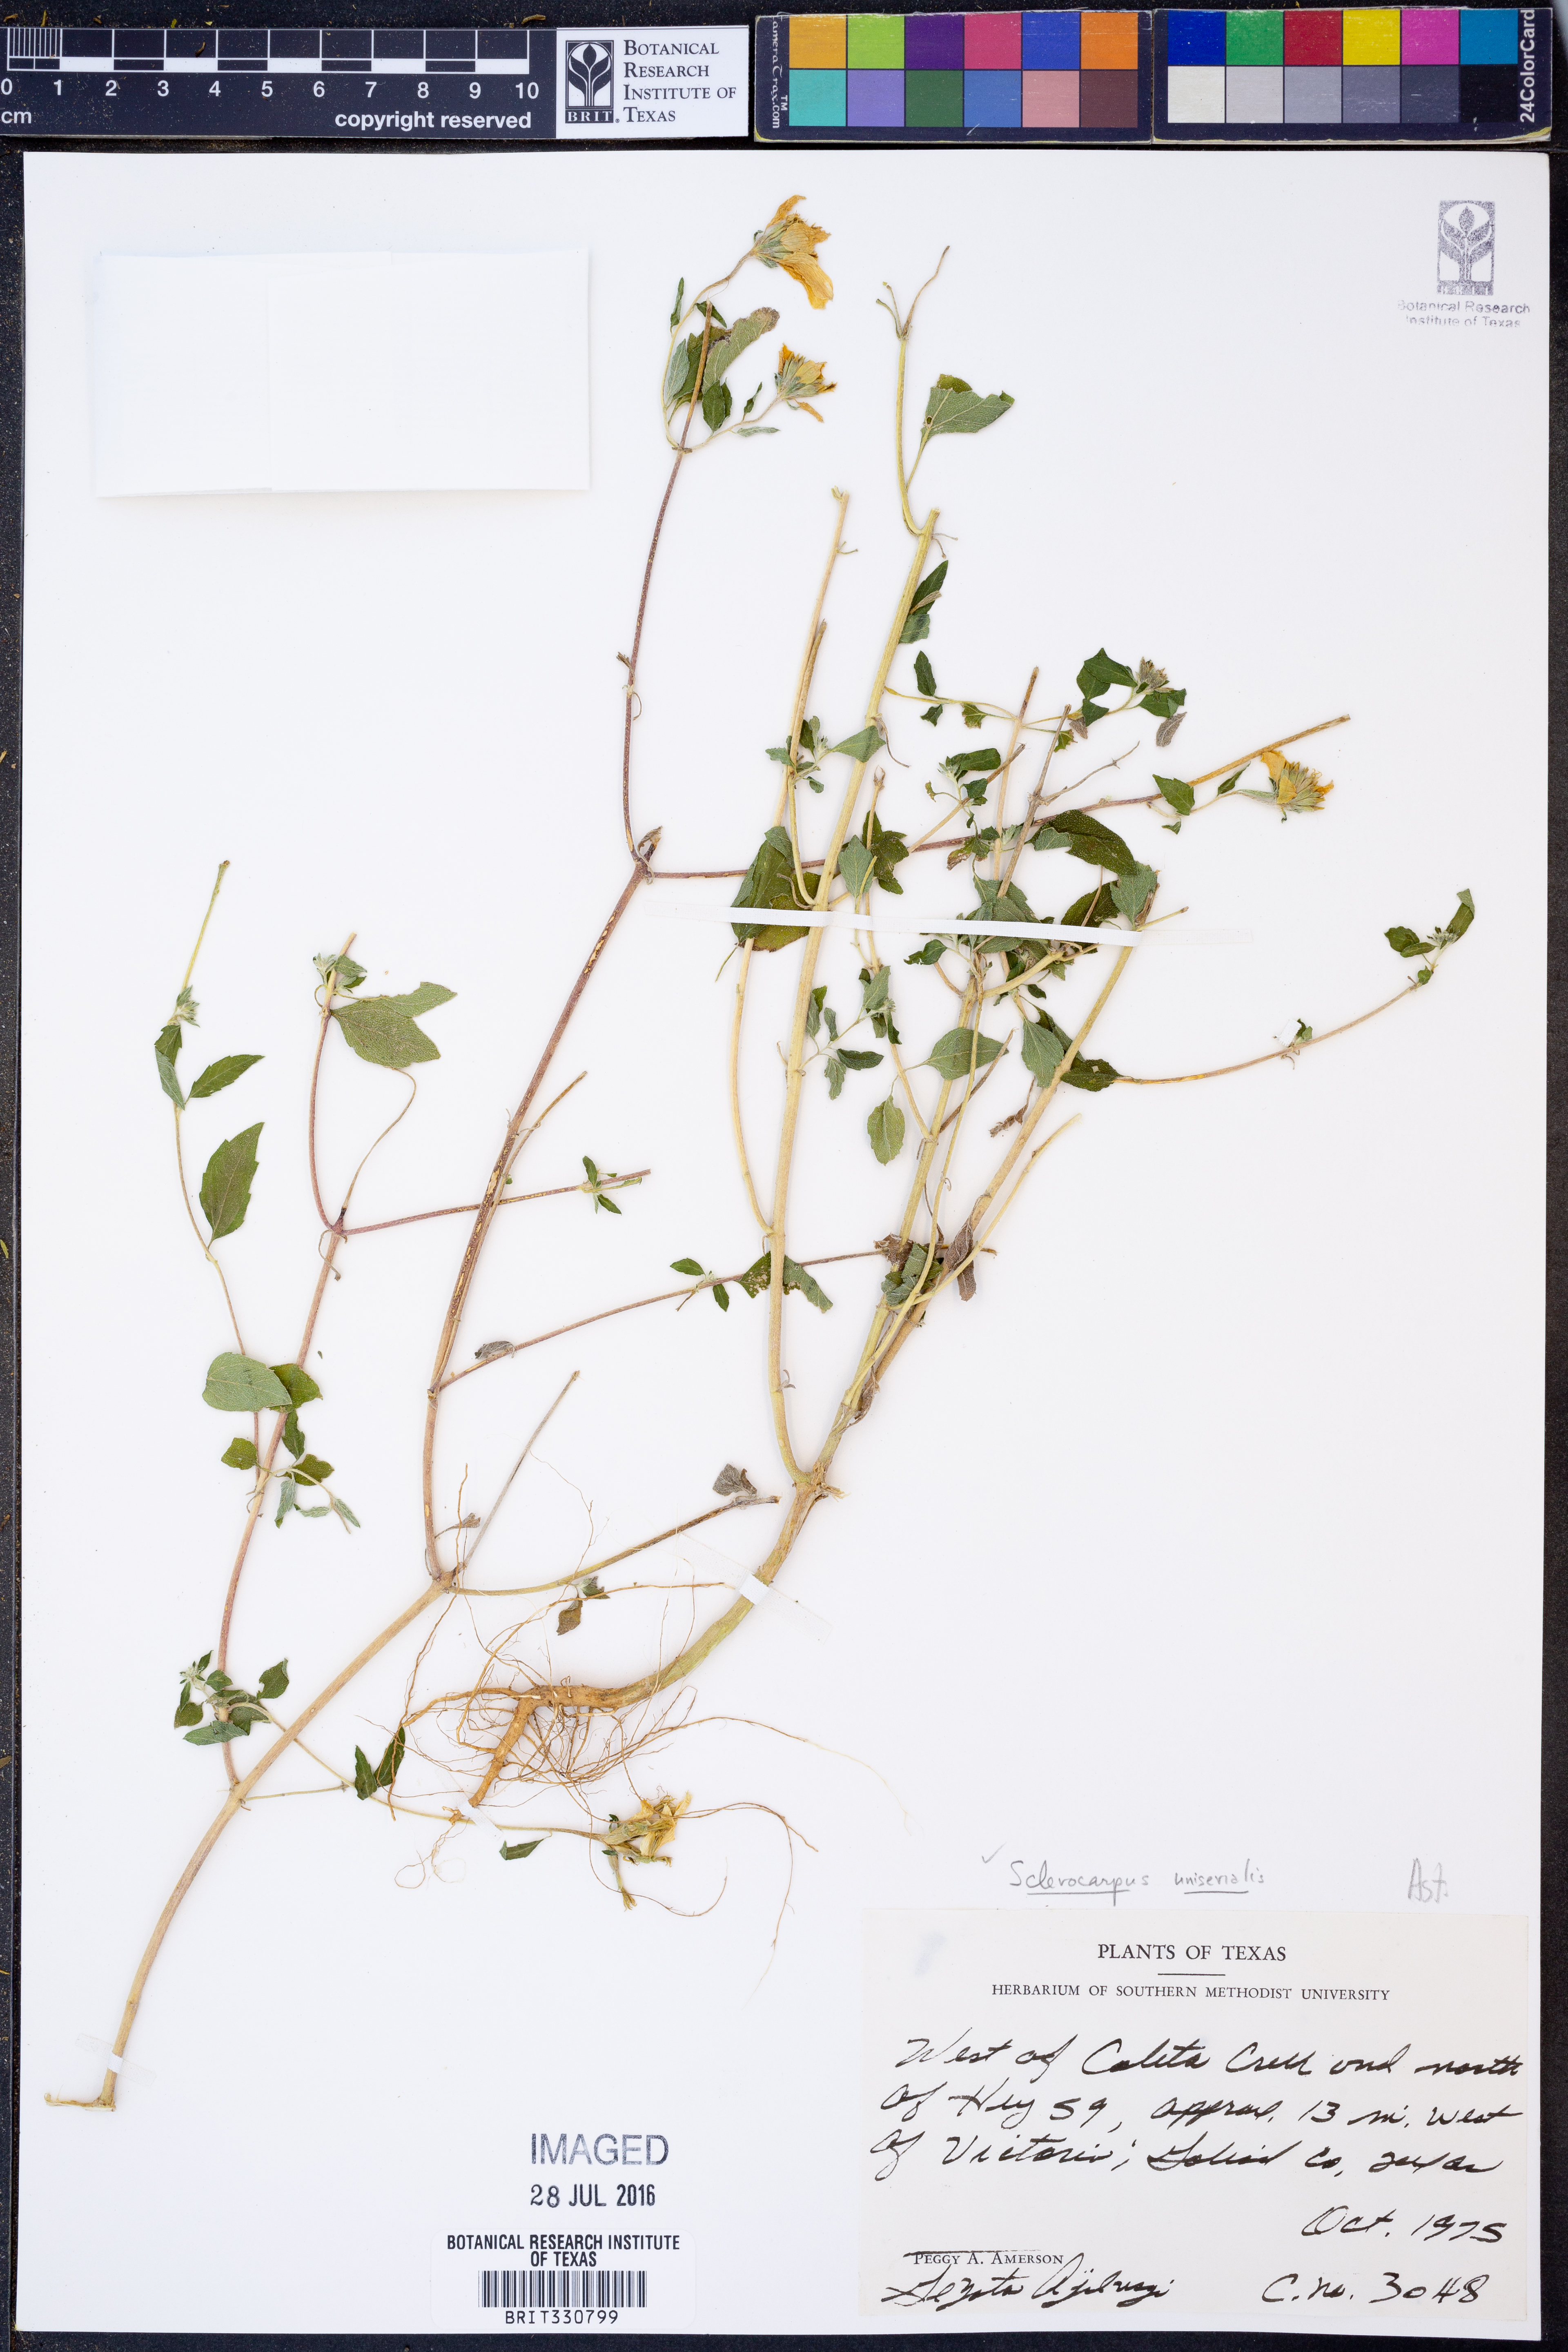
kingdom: Plantae
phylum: Tracheophyta
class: Magnoliopsida
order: Asterales
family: Asteraceae
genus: Sclerocarpus
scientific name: Sclerocarpus uniserialis
